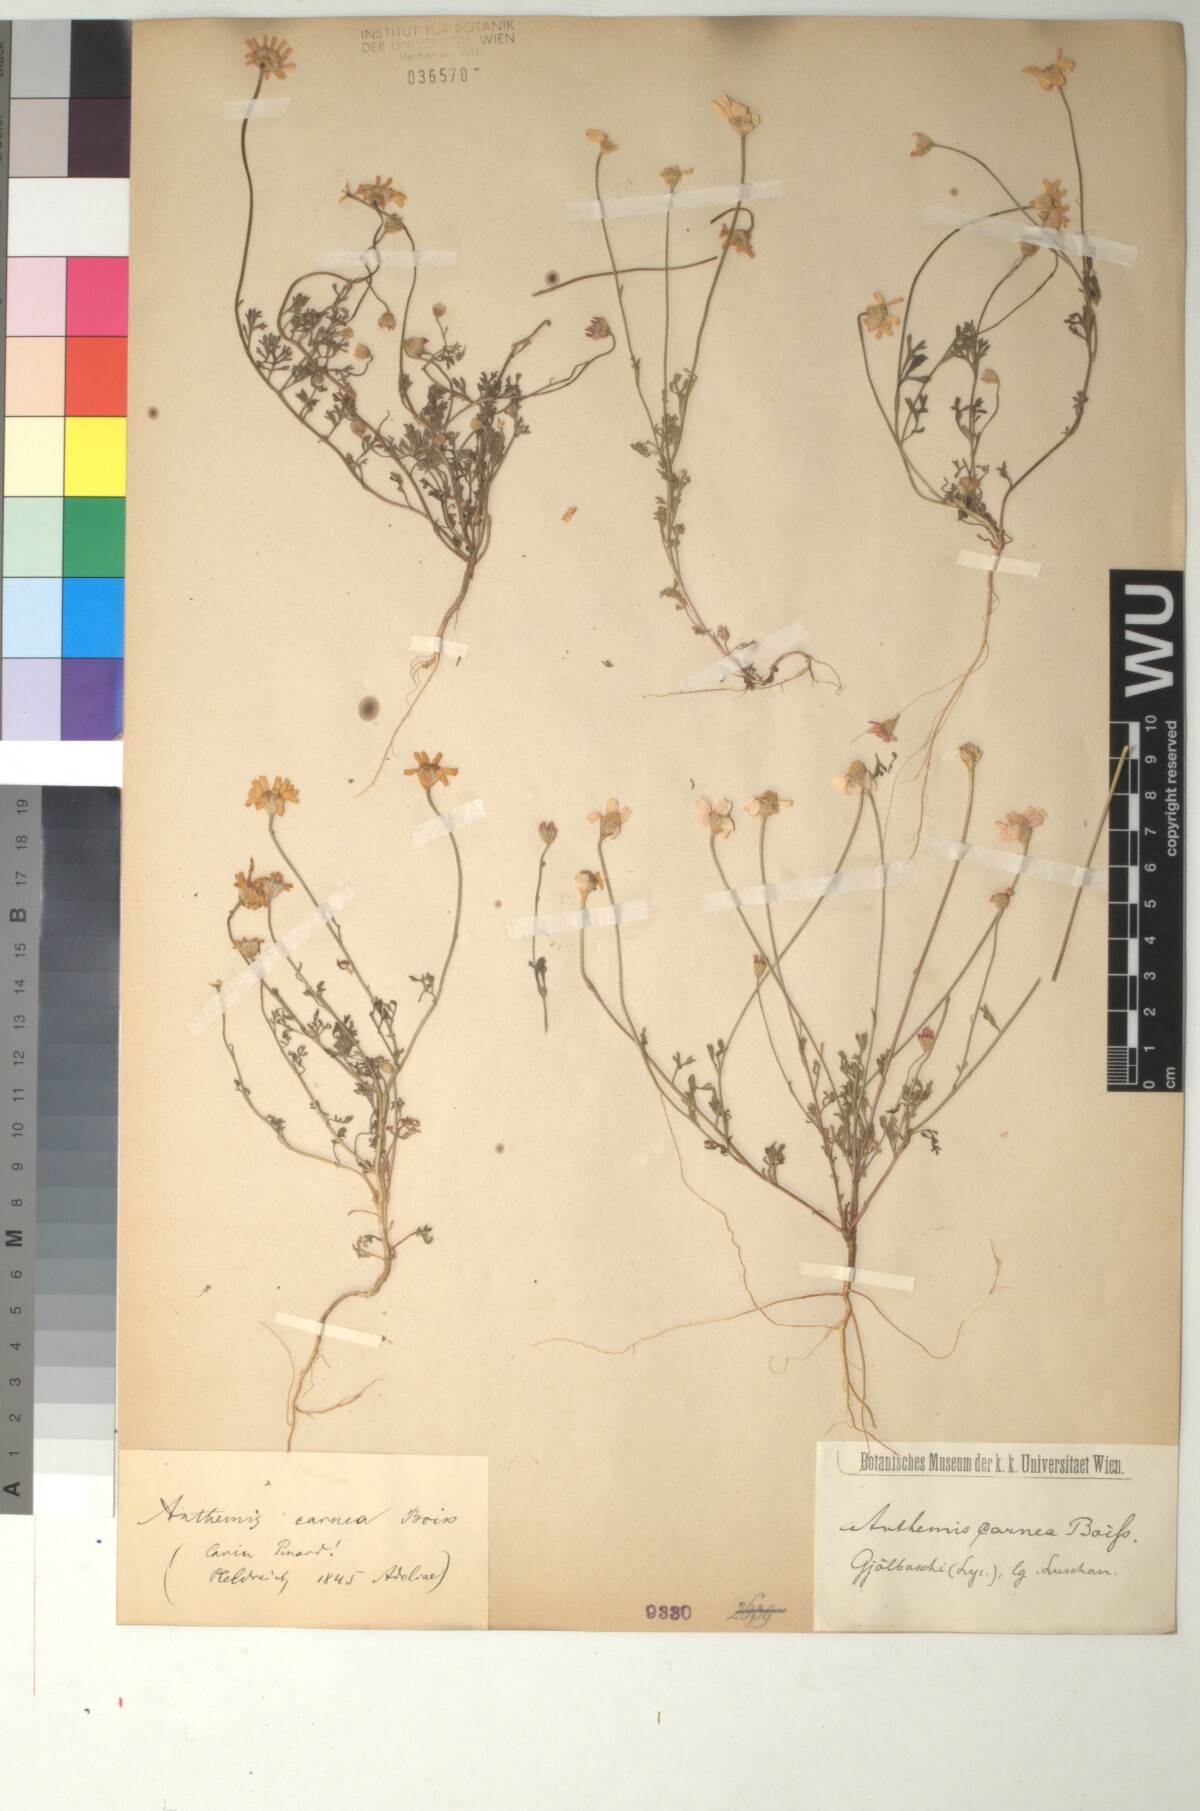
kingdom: Plantae
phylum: Tracheophyta
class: Magnoliopsida
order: Asterales
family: Asteraceae
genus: Anthemis
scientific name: Anthemis rosea
